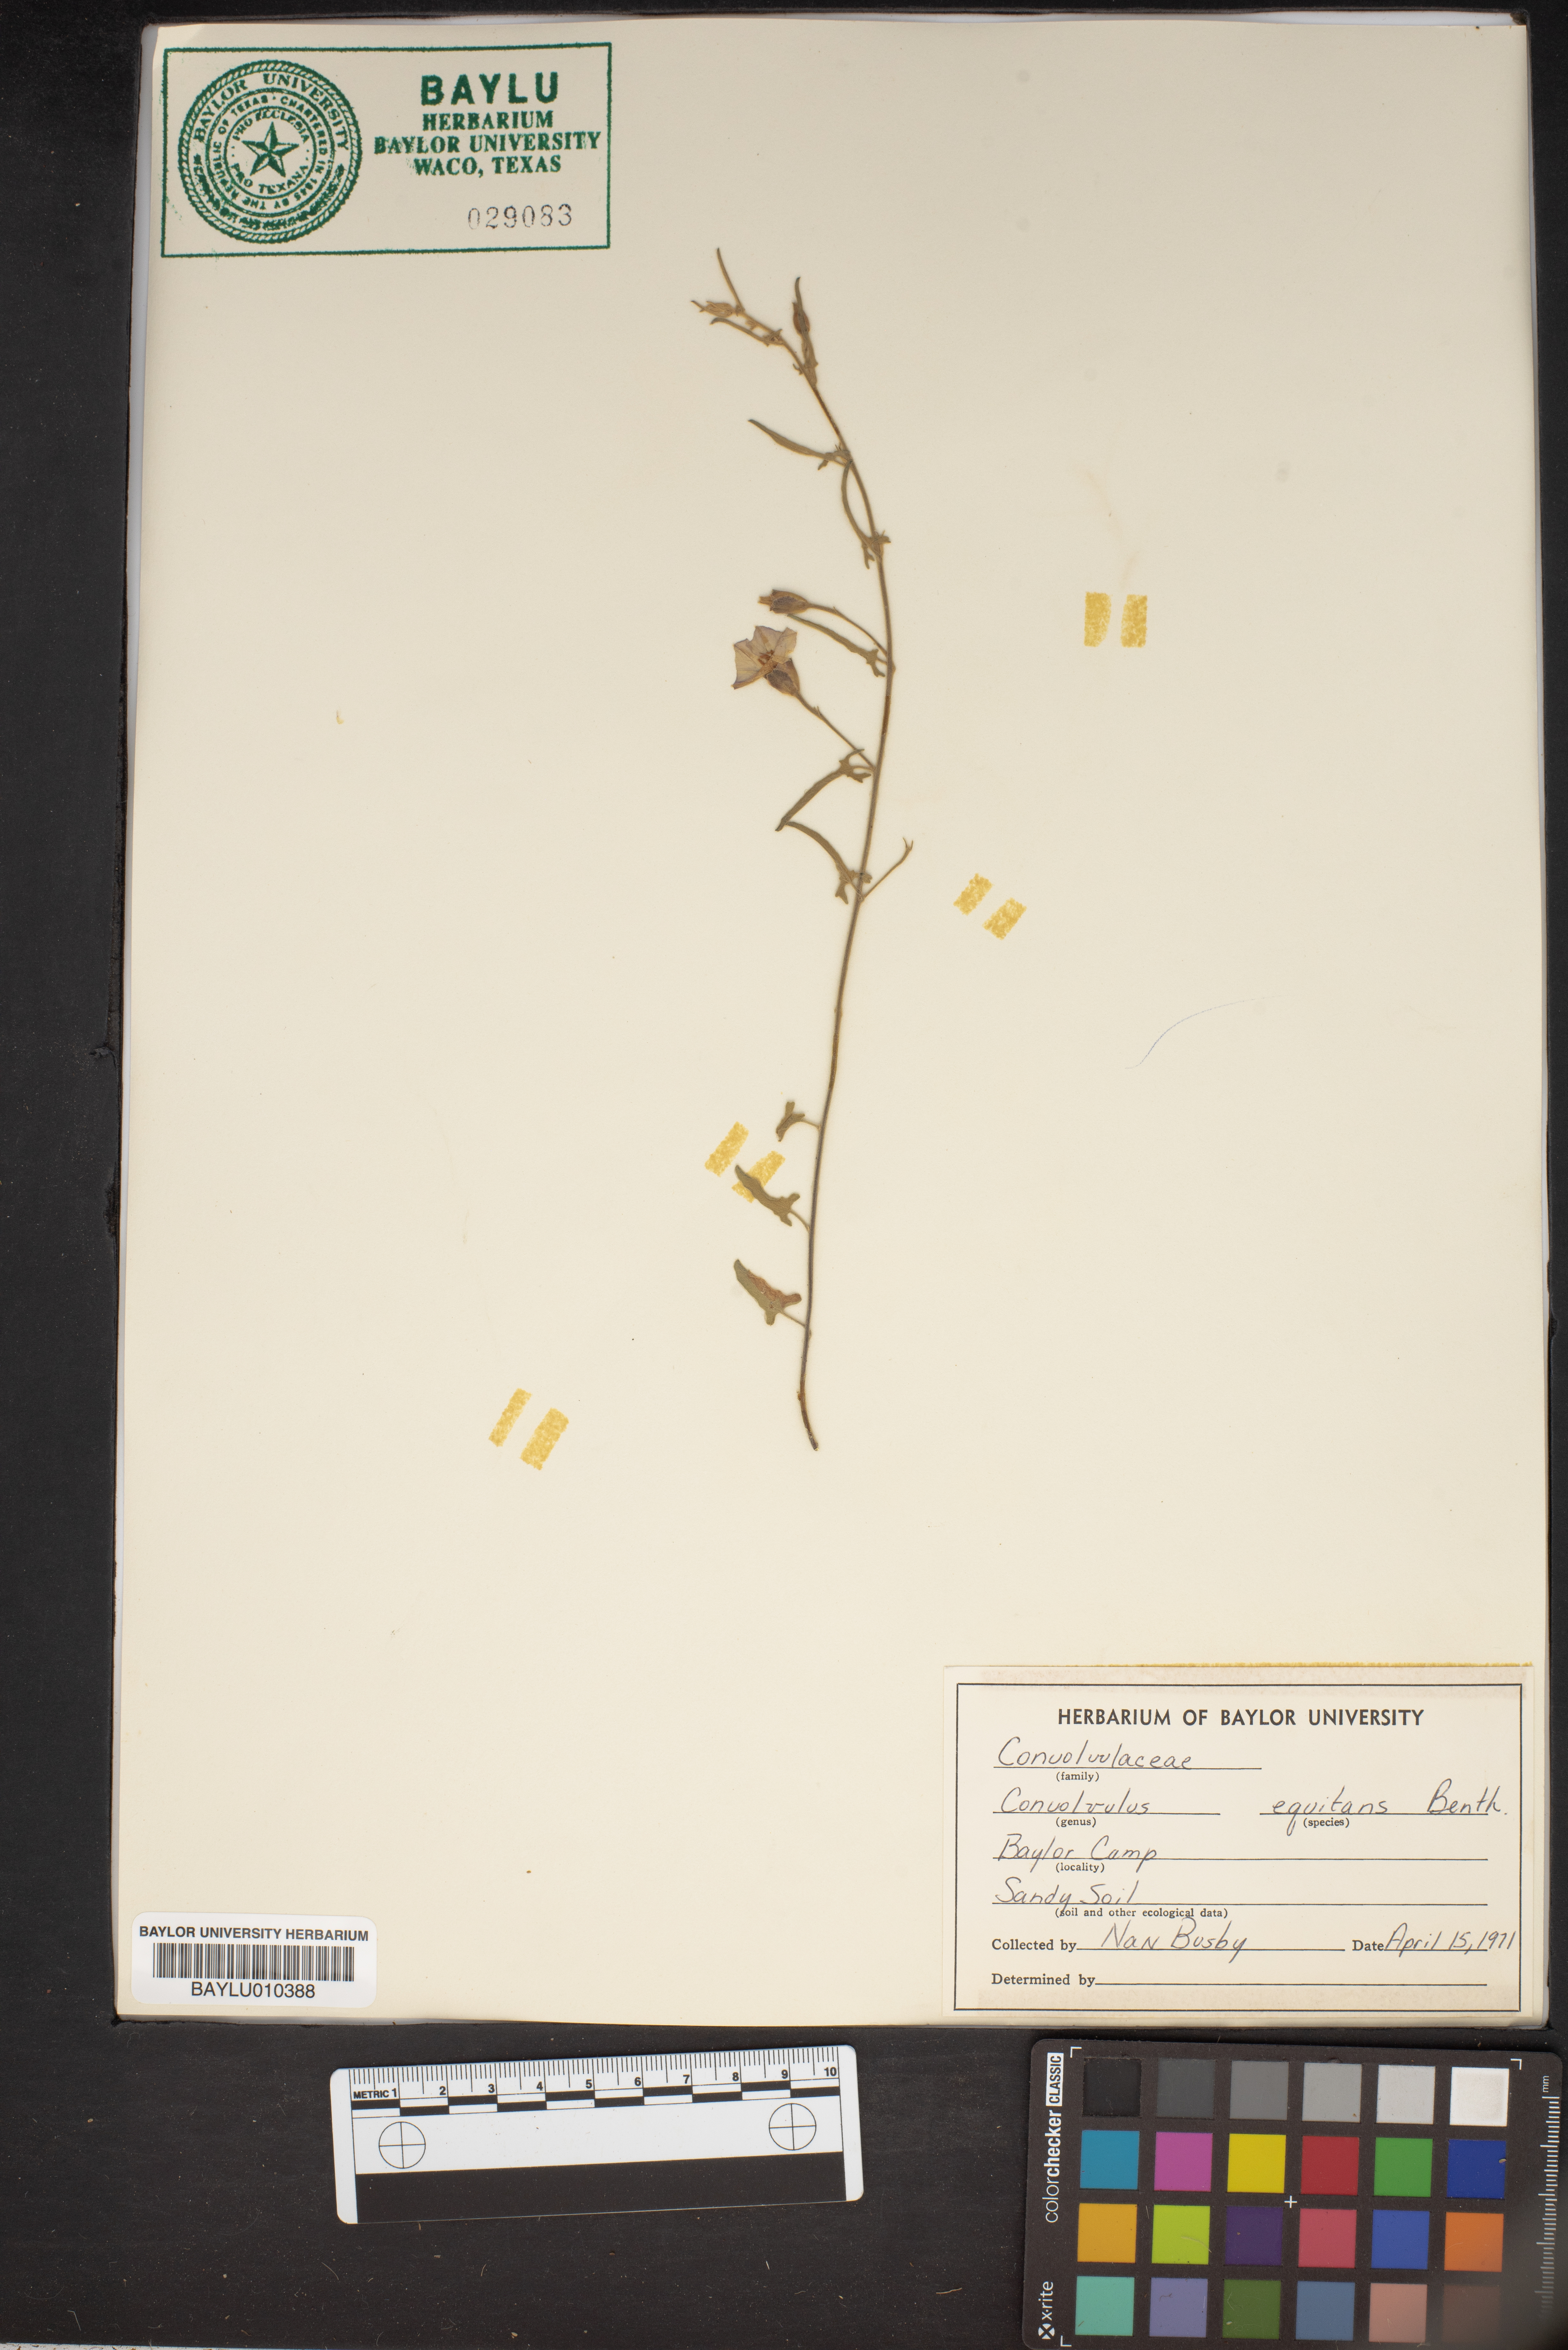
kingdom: Plantae
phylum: Tracheophyta
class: Magnoliopsida
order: Solanales
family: Convolvulaceae
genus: Convolvulus
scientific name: Convolvulus equitans
